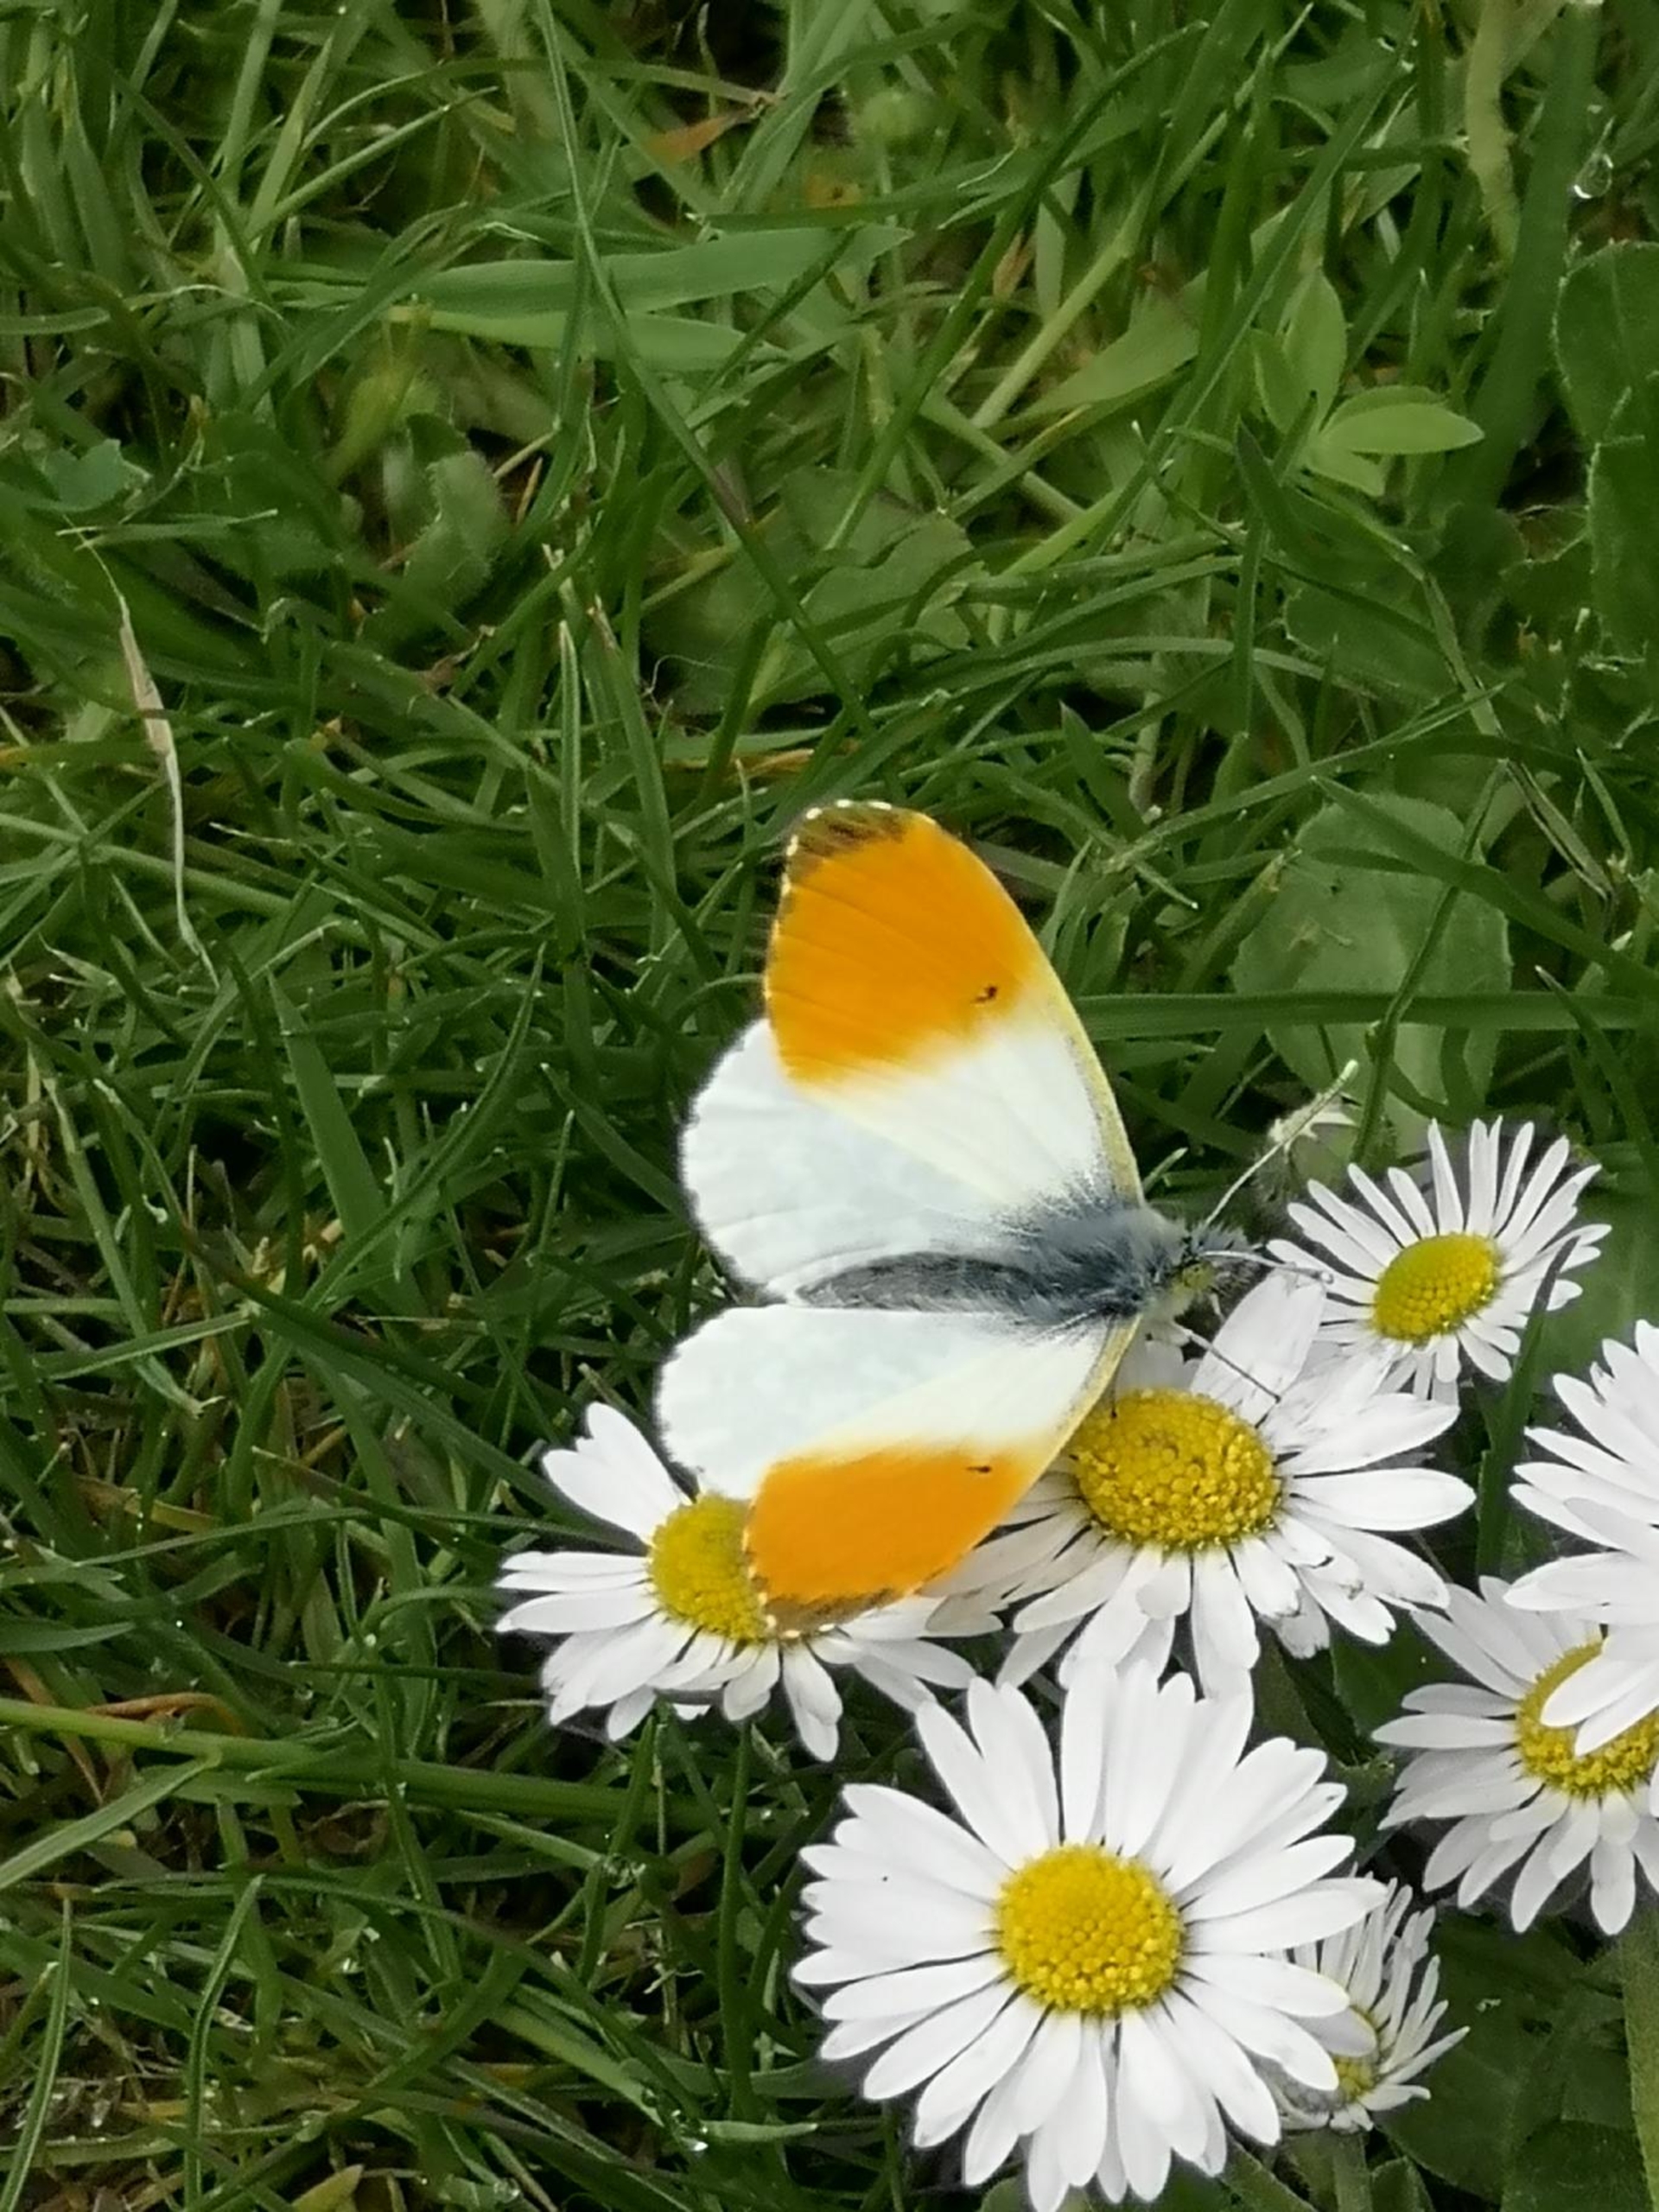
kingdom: Animalia
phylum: Arthropoda
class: Insecta
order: Lepidoptera
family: Pieridae
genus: Anthocharis
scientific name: Anthocharis cardamines
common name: Aurora
